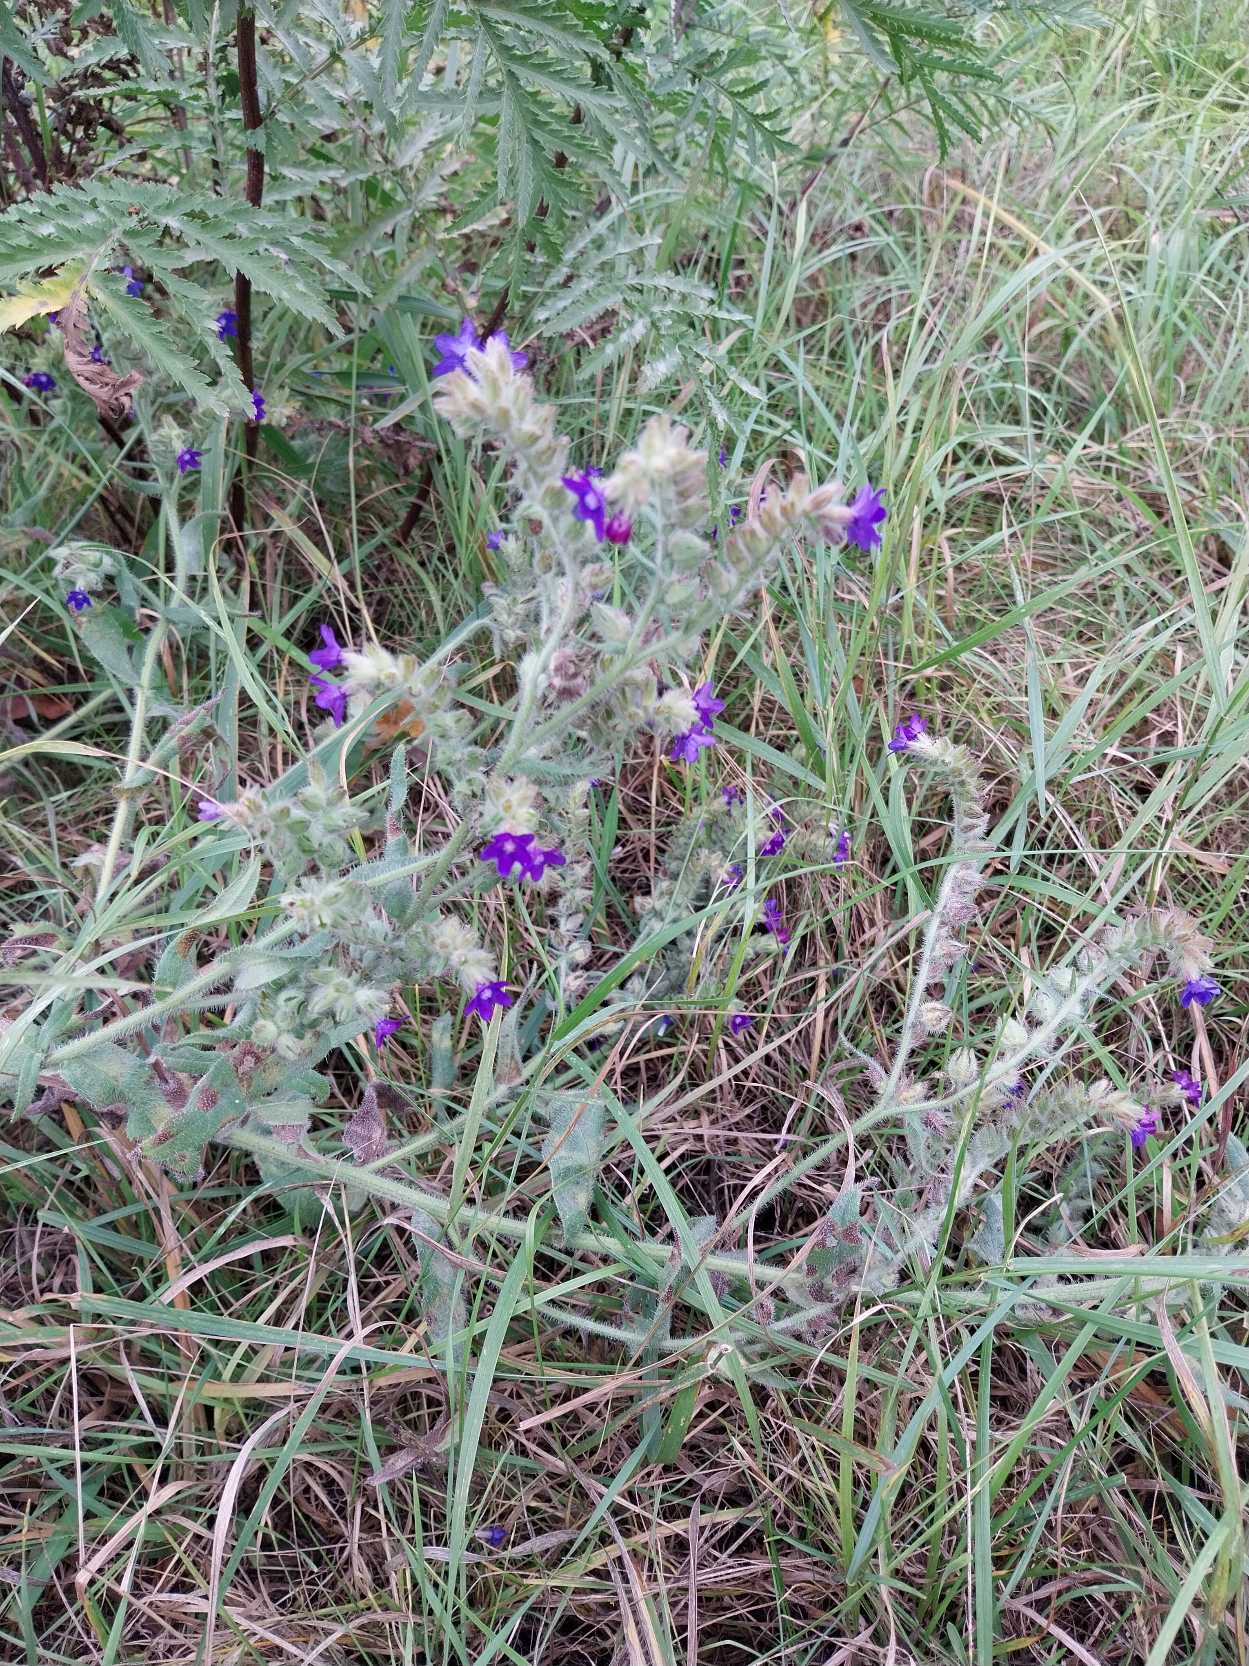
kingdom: Plantae
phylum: Tracheophyta
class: Magnoliopsida
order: Boraginales
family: Boraginaceae
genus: Anchusa
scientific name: Anchusa officinalis
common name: Læge-oksetunge
